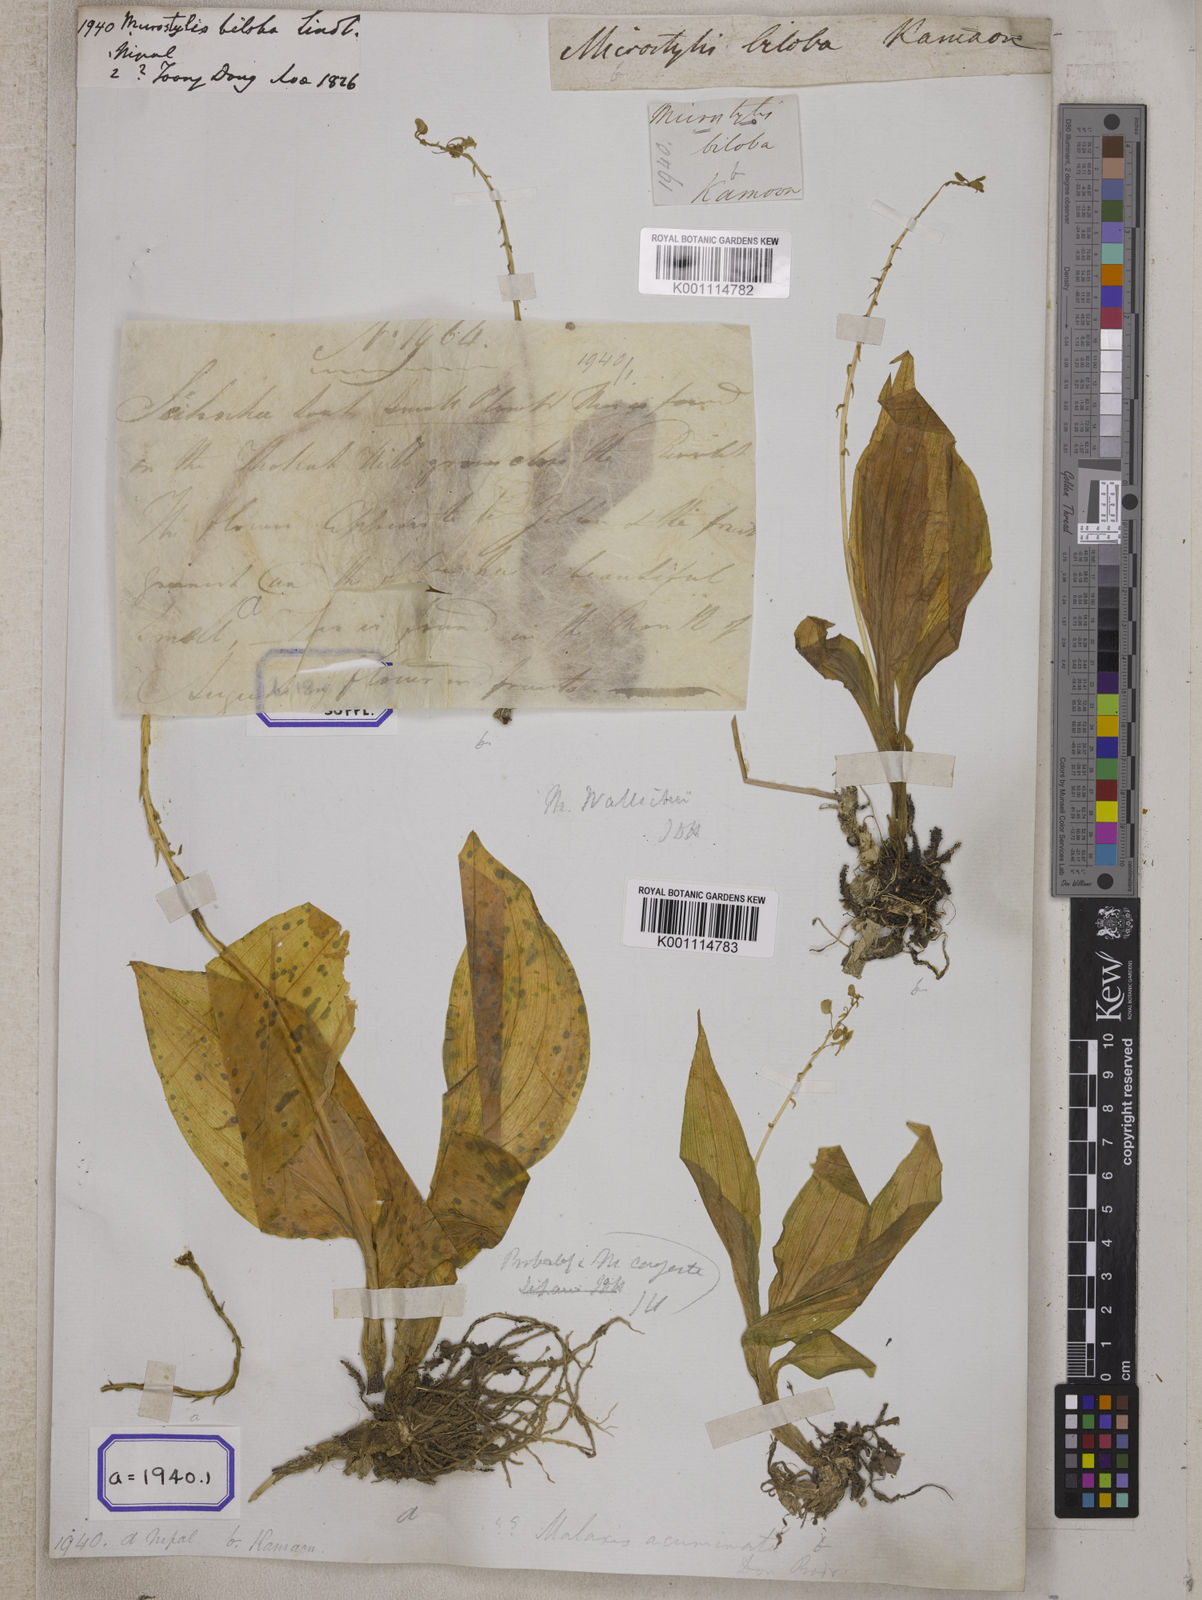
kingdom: Plantae
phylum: Tracheophyta
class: Liliopsida
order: Asparagales
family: Orchidaceae
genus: Crepidium
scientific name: Crepidium purpureum
